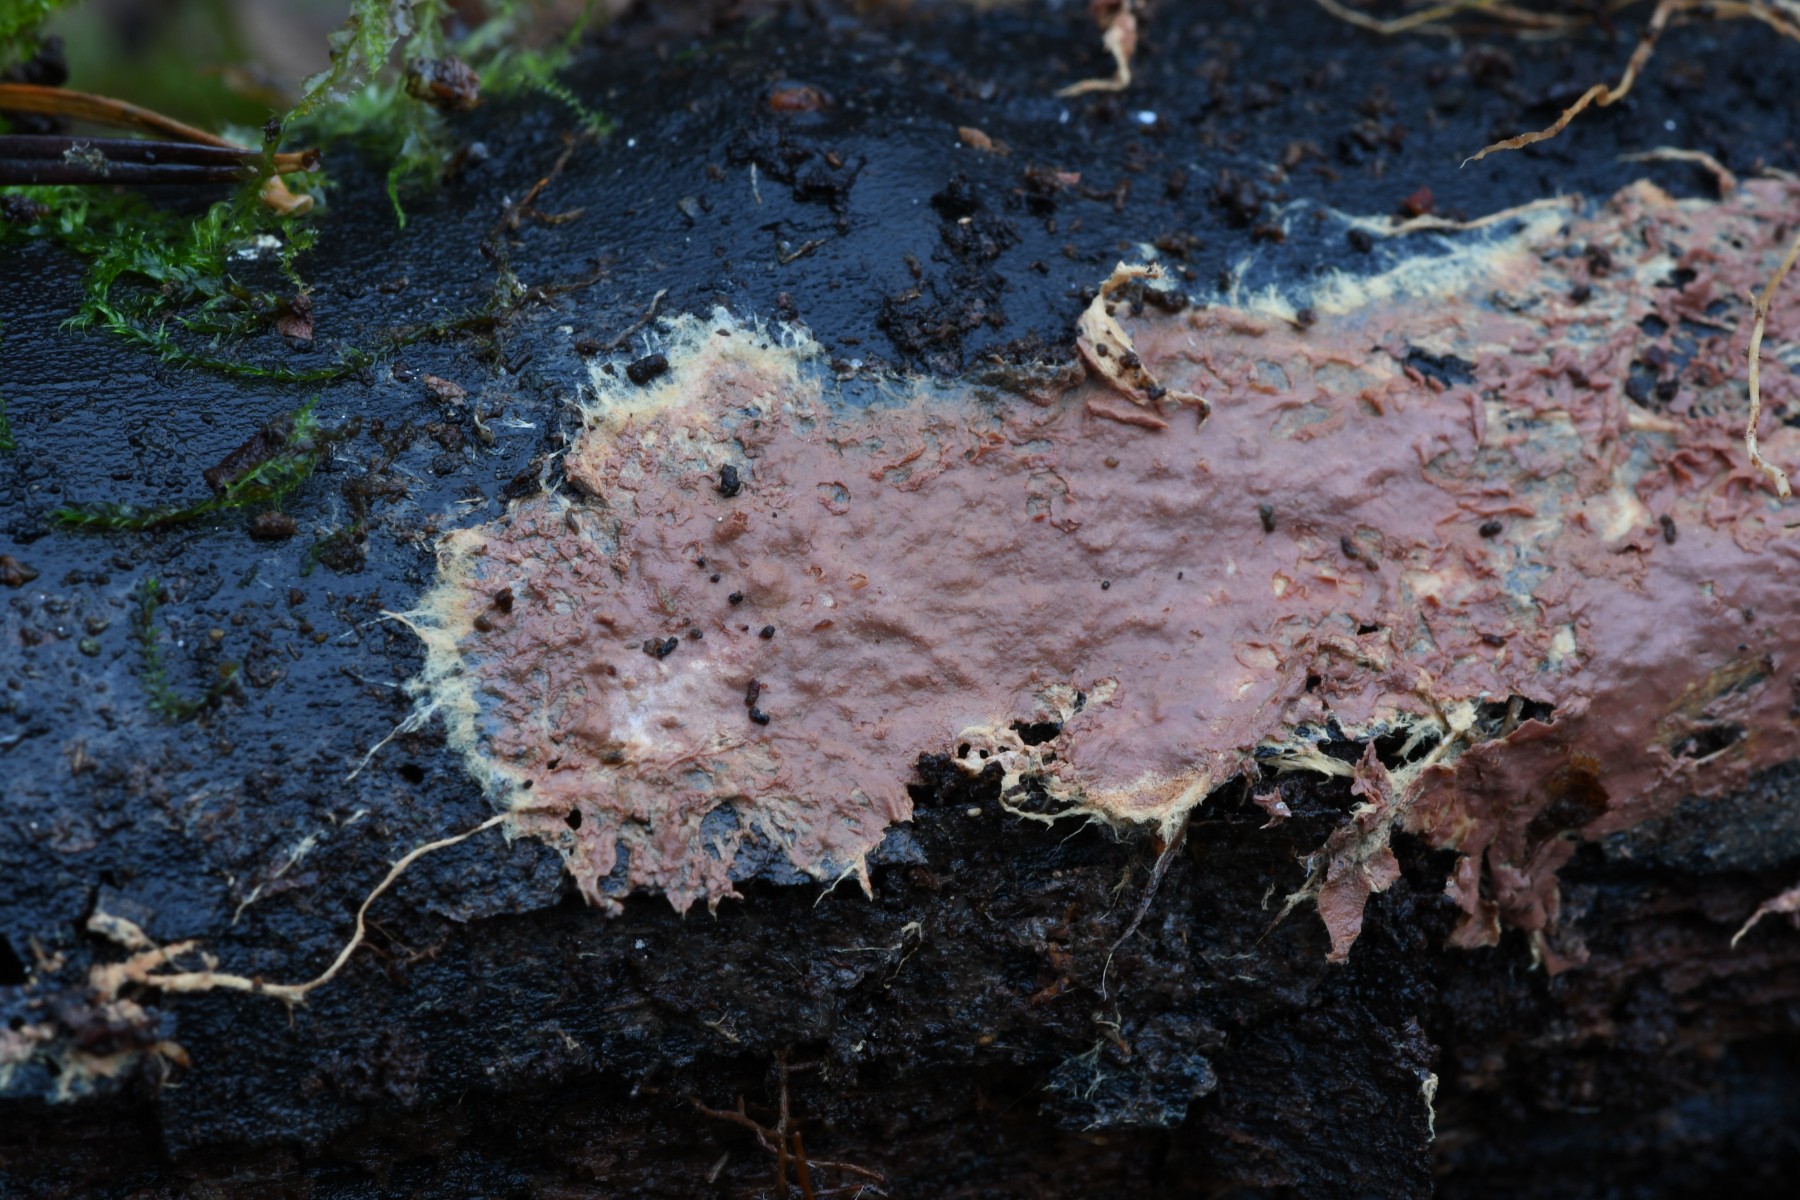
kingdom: Fungi
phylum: Basidiomycota
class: Agaricomycetes
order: Corticiales
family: Corticiaceae
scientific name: Corticiaceae
